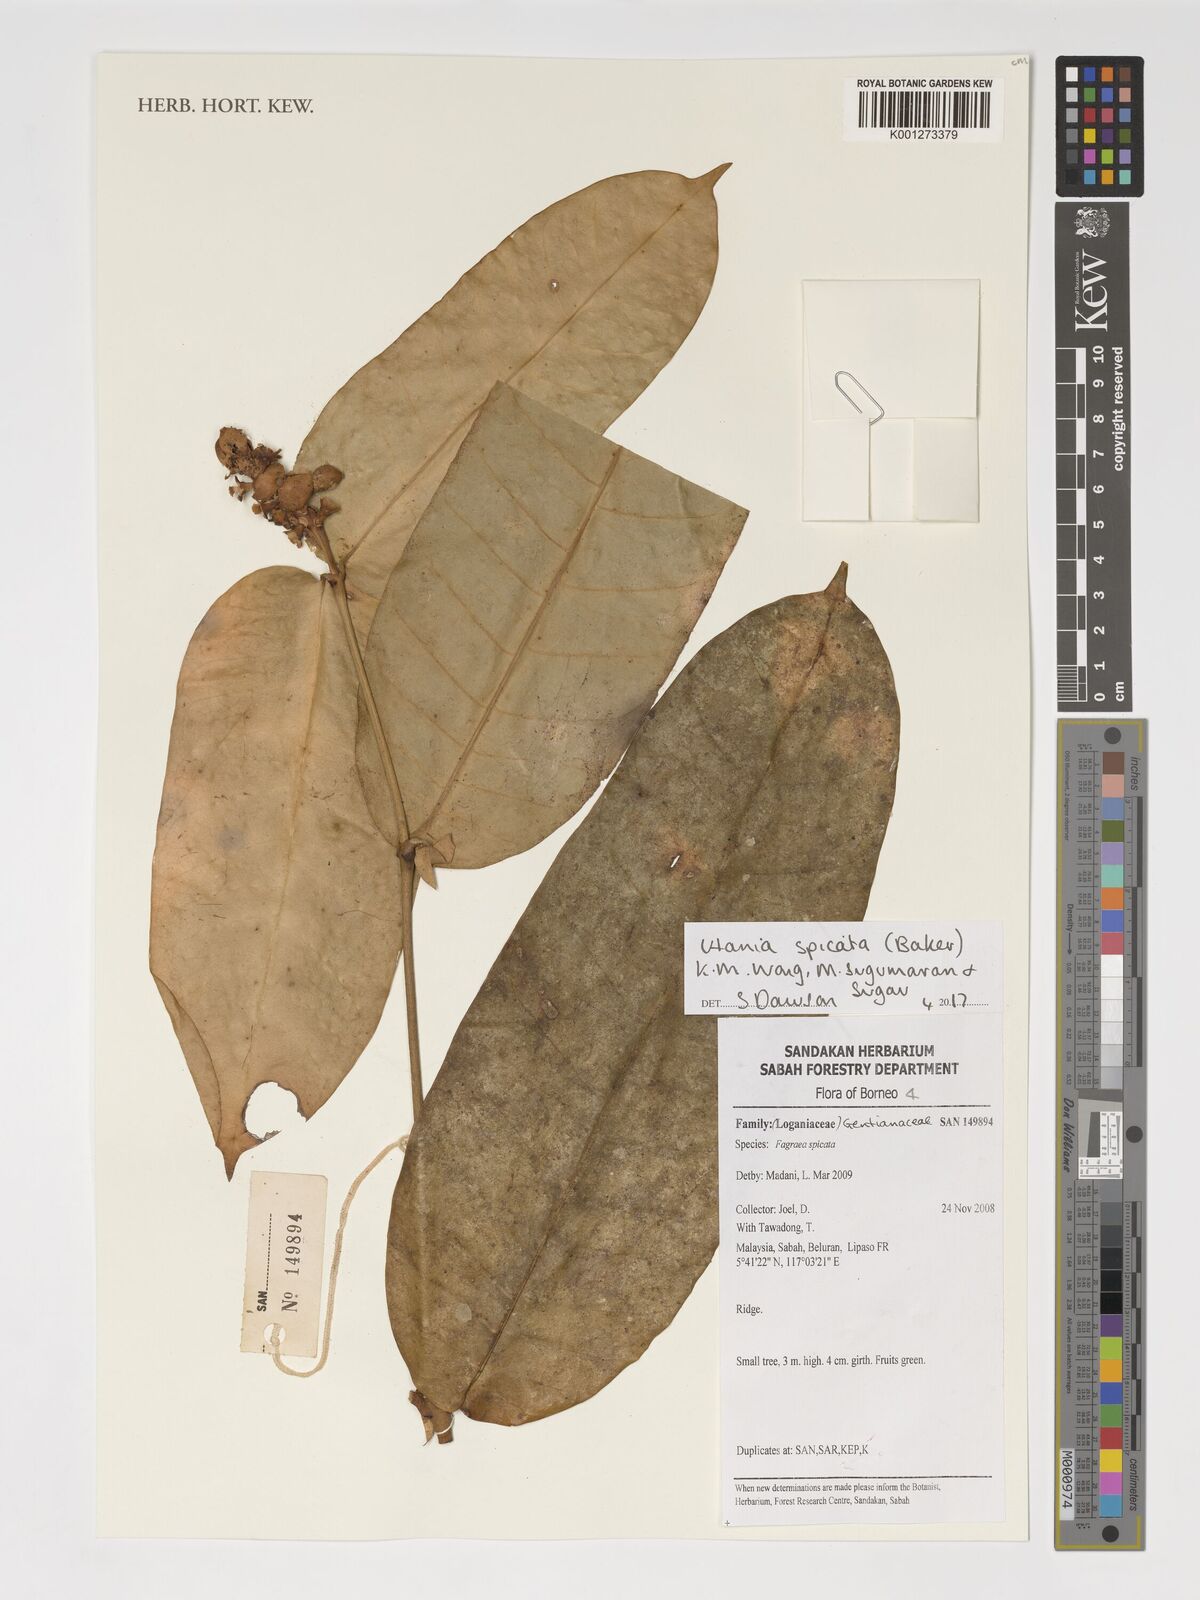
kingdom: Plantae
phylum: Tracheophyta
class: Magnoliopsida
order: Gentianales
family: Gentianaceae
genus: Utania
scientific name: Utania spicata
